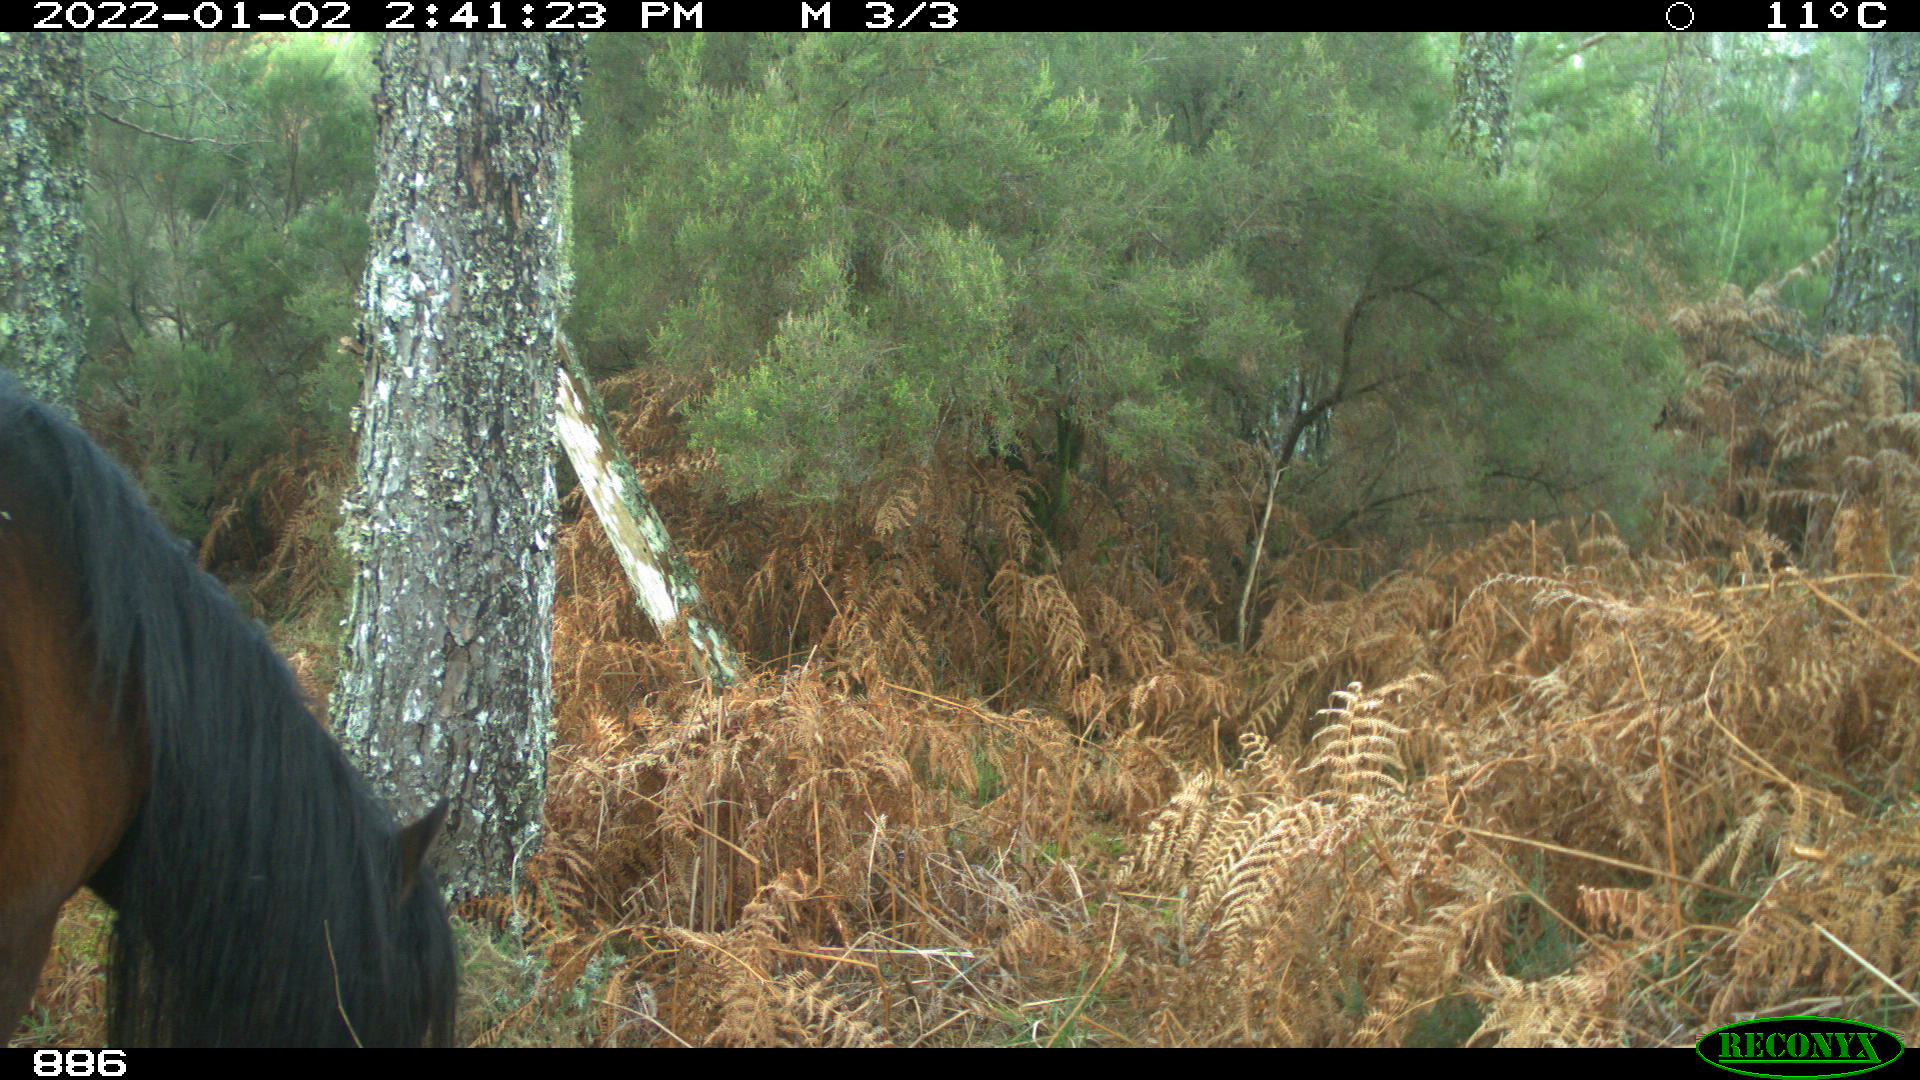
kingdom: Animalia
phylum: Chordata
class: Mammalia
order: Perissodactyla
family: Equidae
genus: Equus
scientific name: Equus caballus
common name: Horse
